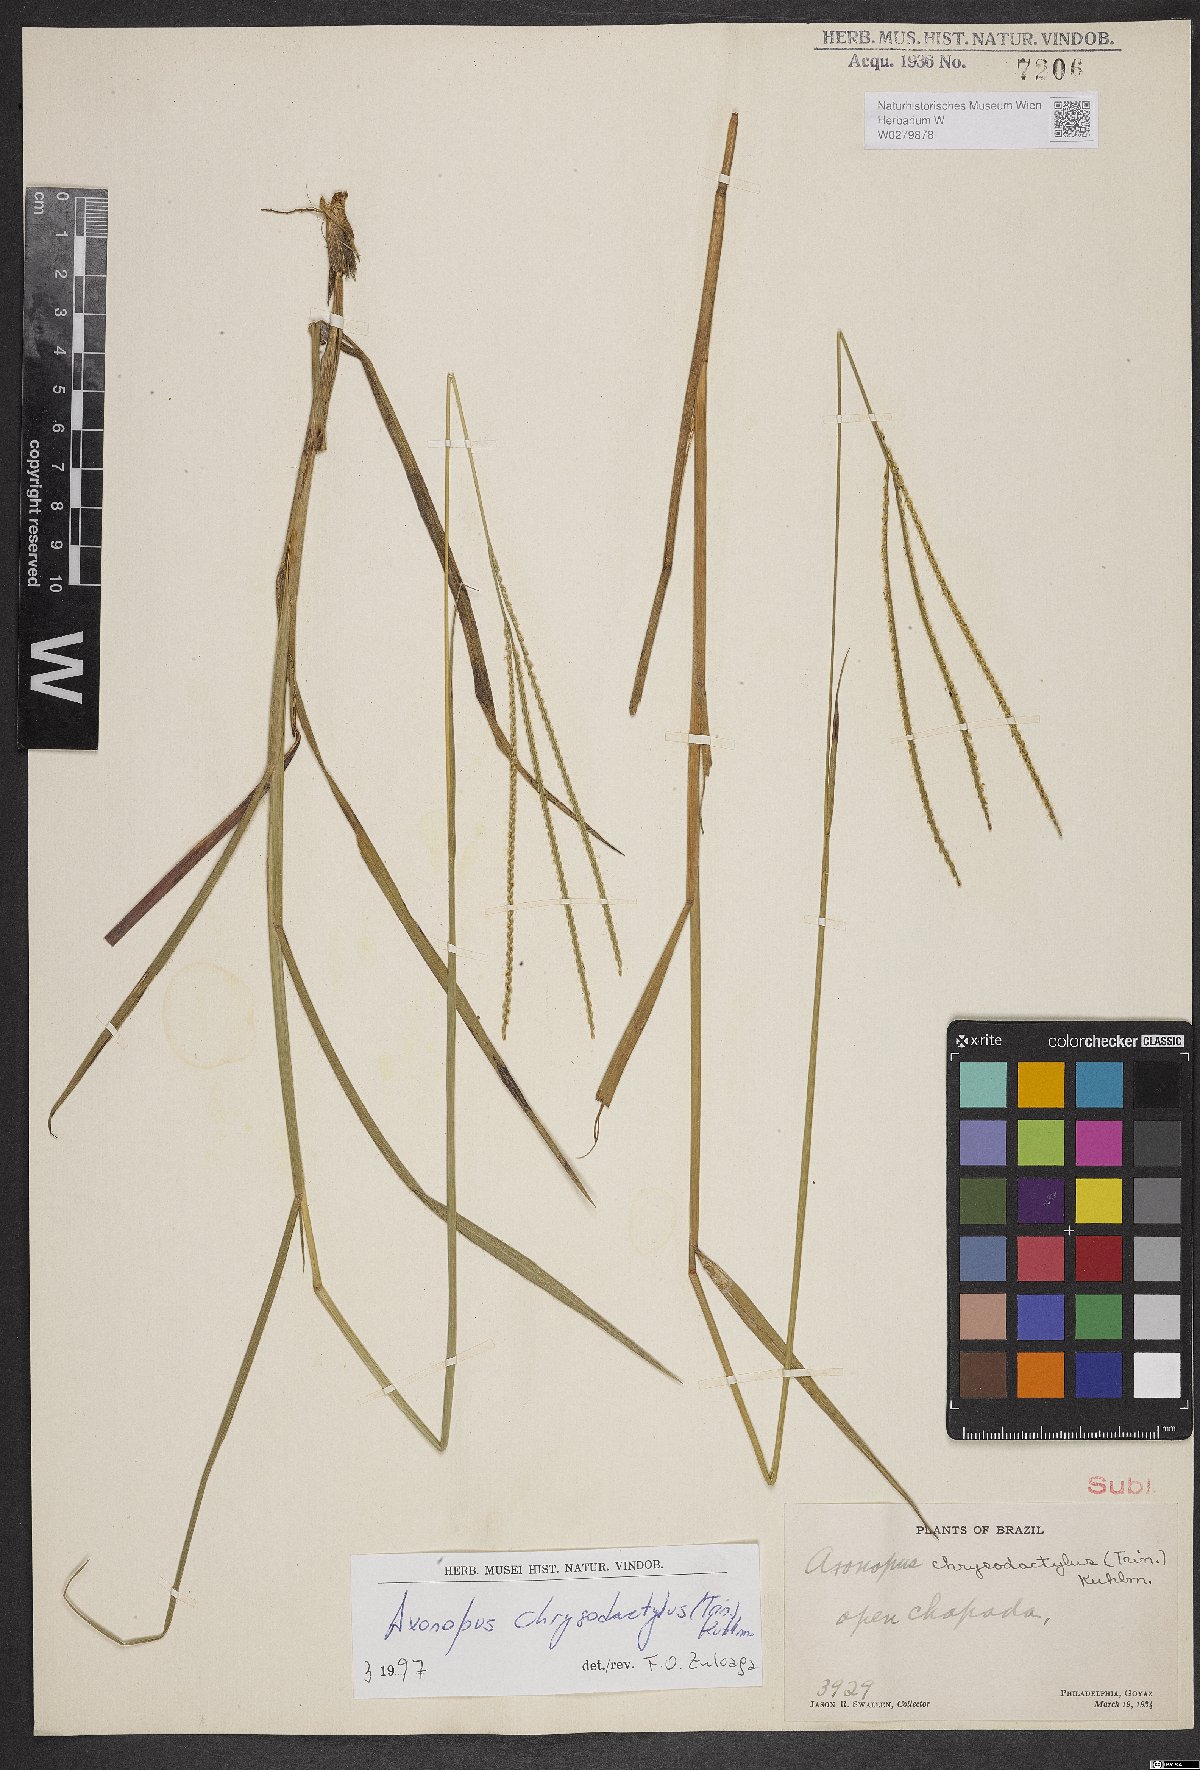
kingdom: Plantae
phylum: Tracheophyta
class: Liliopsida
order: Poales
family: Poaceae
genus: Axonopus
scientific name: Axonopus aureus
